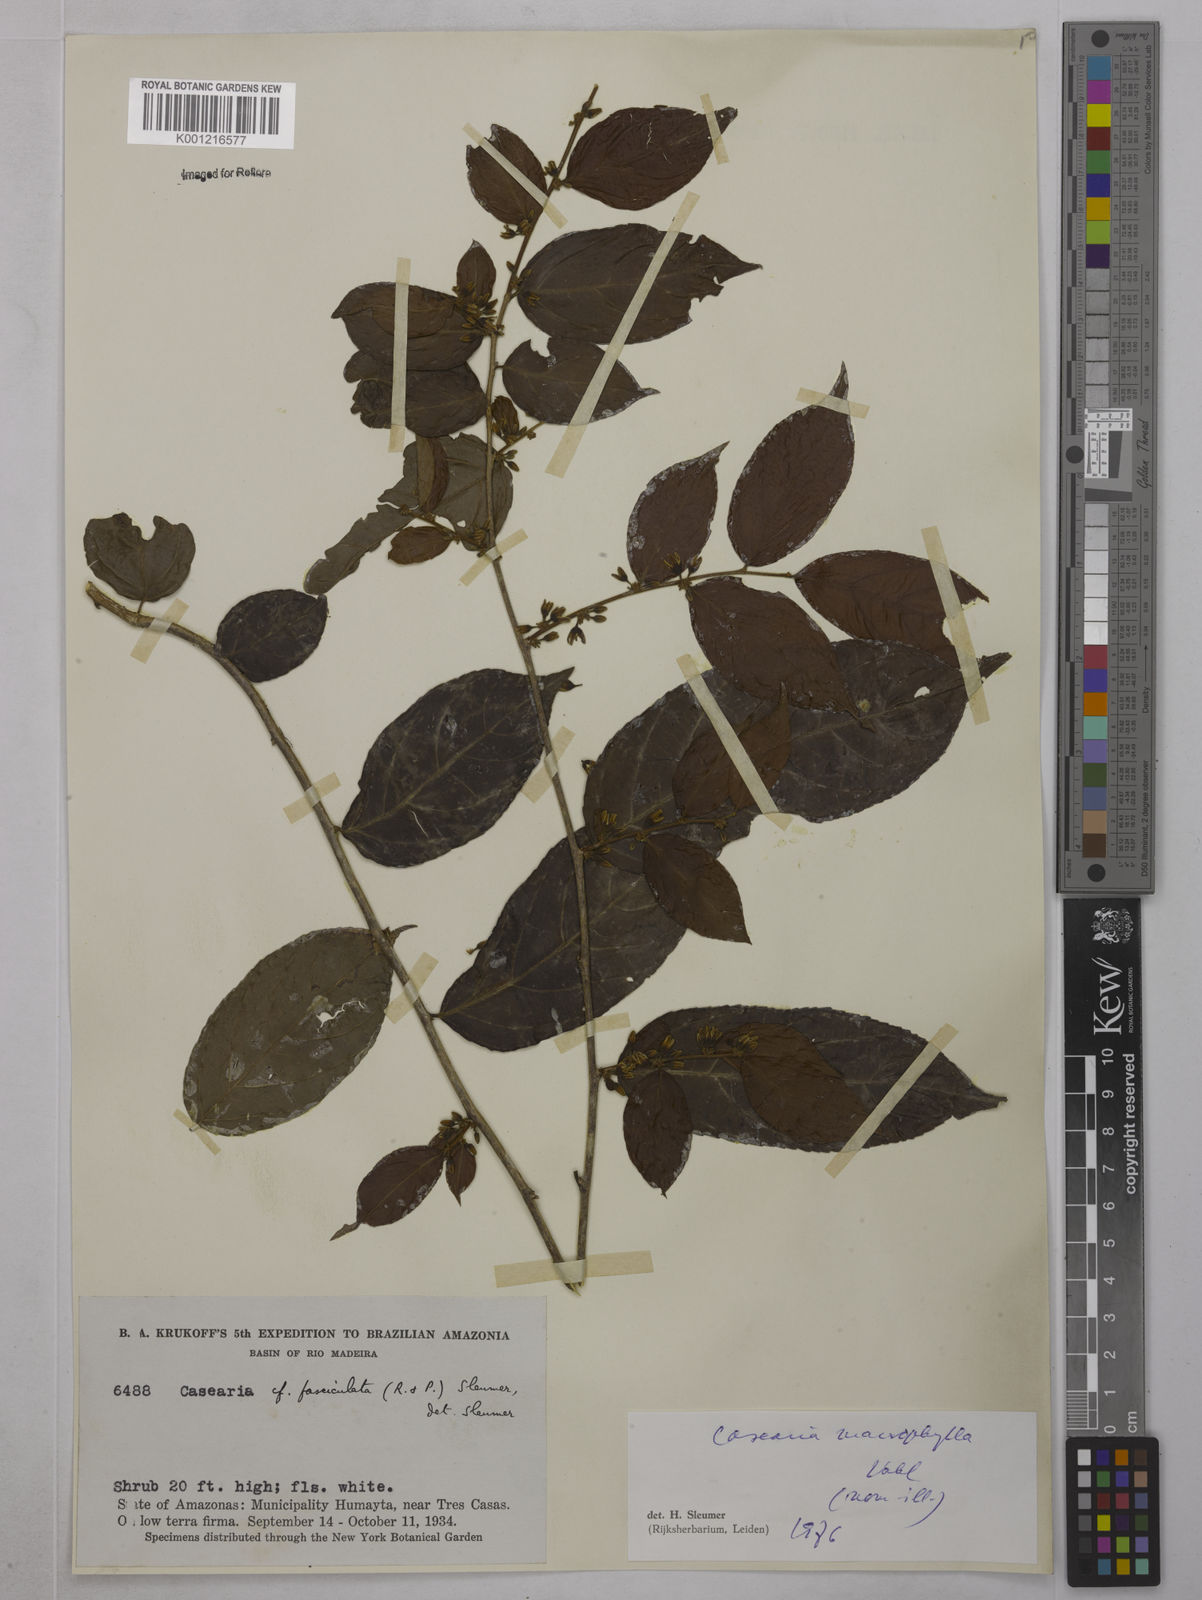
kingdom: Plantae
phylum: Tracheophyta
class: Magnoliopsida
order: Malpighiales
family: Salicaceae
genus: Casearia
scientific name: Casearia pitumba
